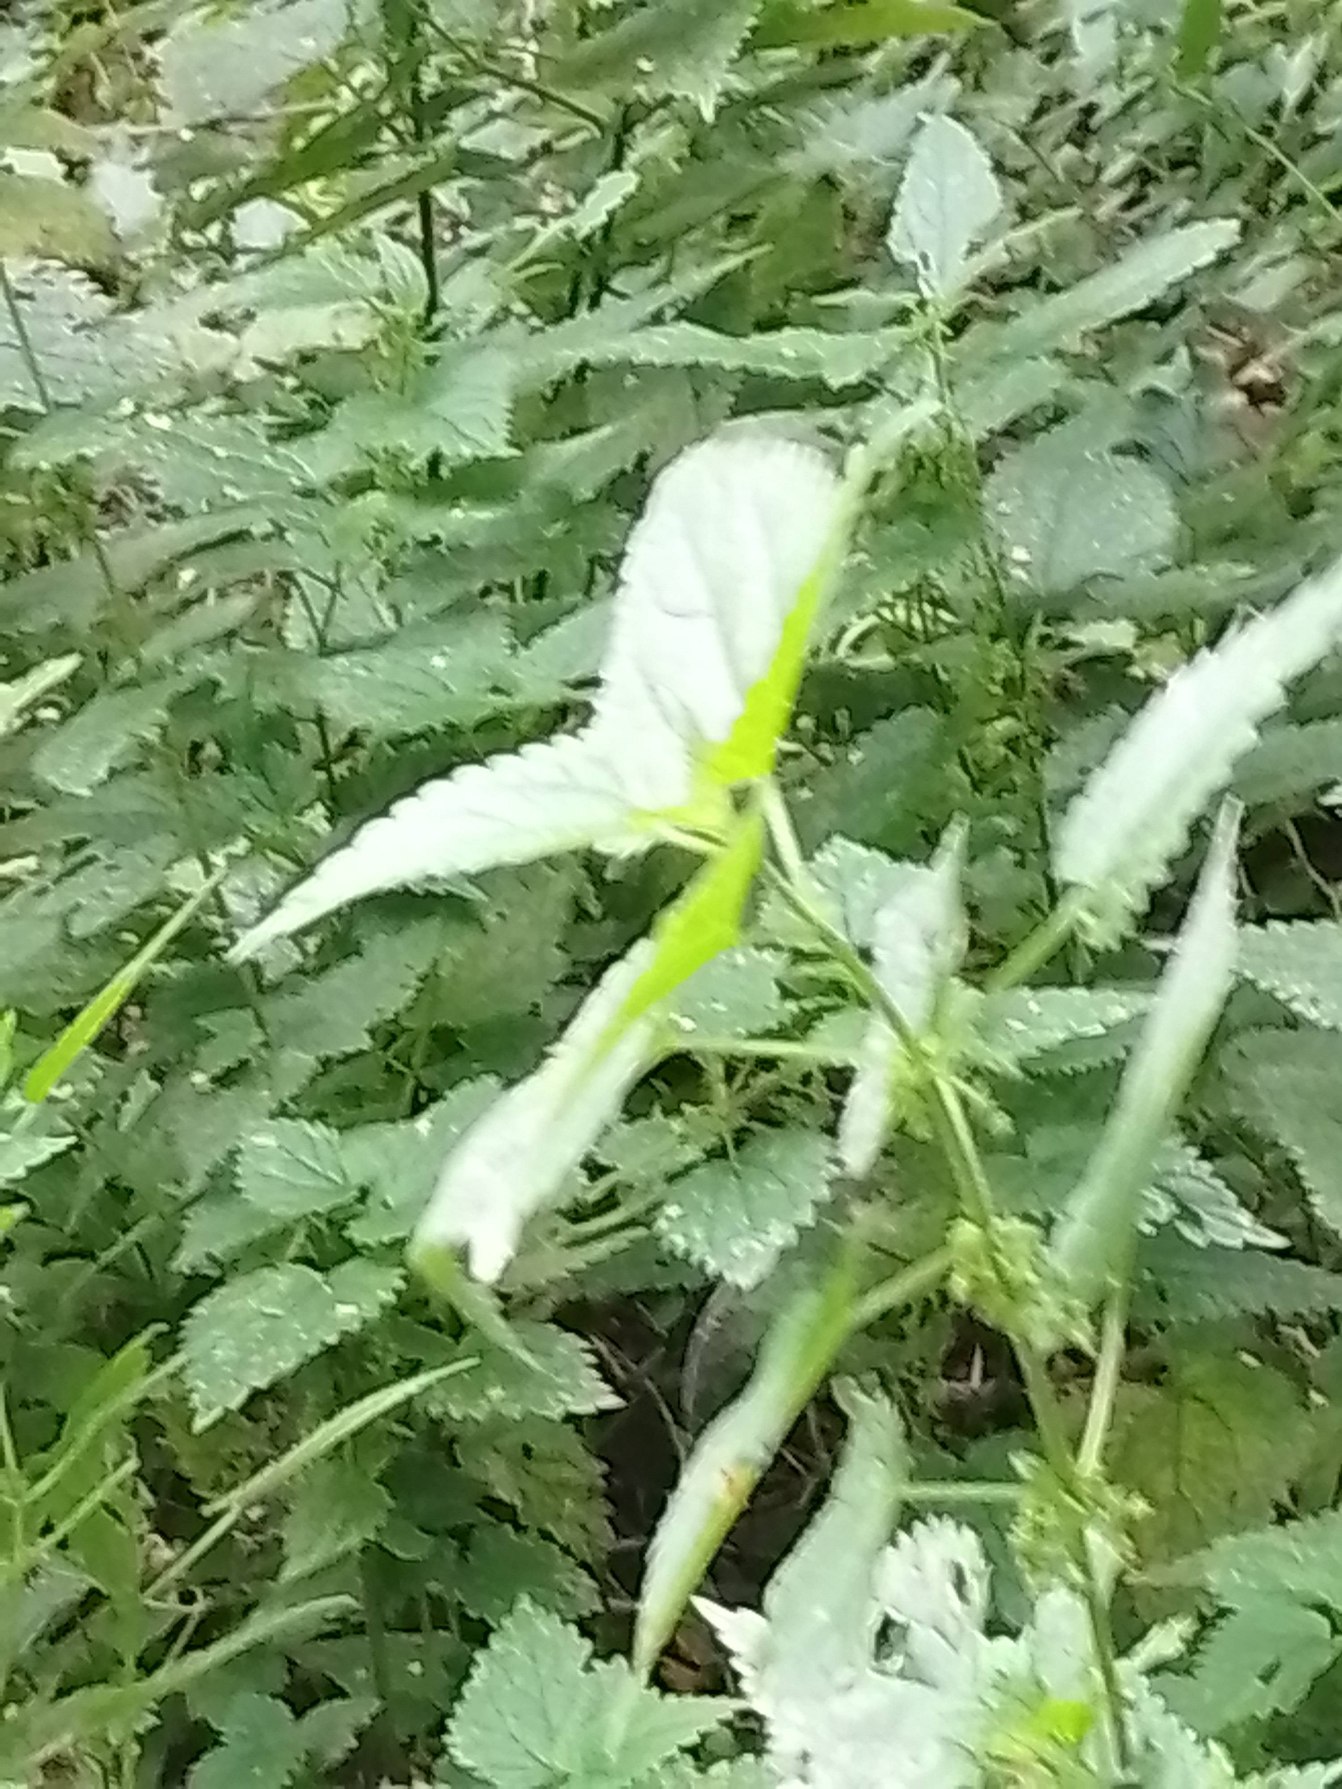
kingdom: Plantae
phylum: Tracheophyta
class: Magnoliopsida
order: Rosales
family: Urticaceae
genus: Urtica
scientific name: Urtica dioica
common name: Stor nælde
